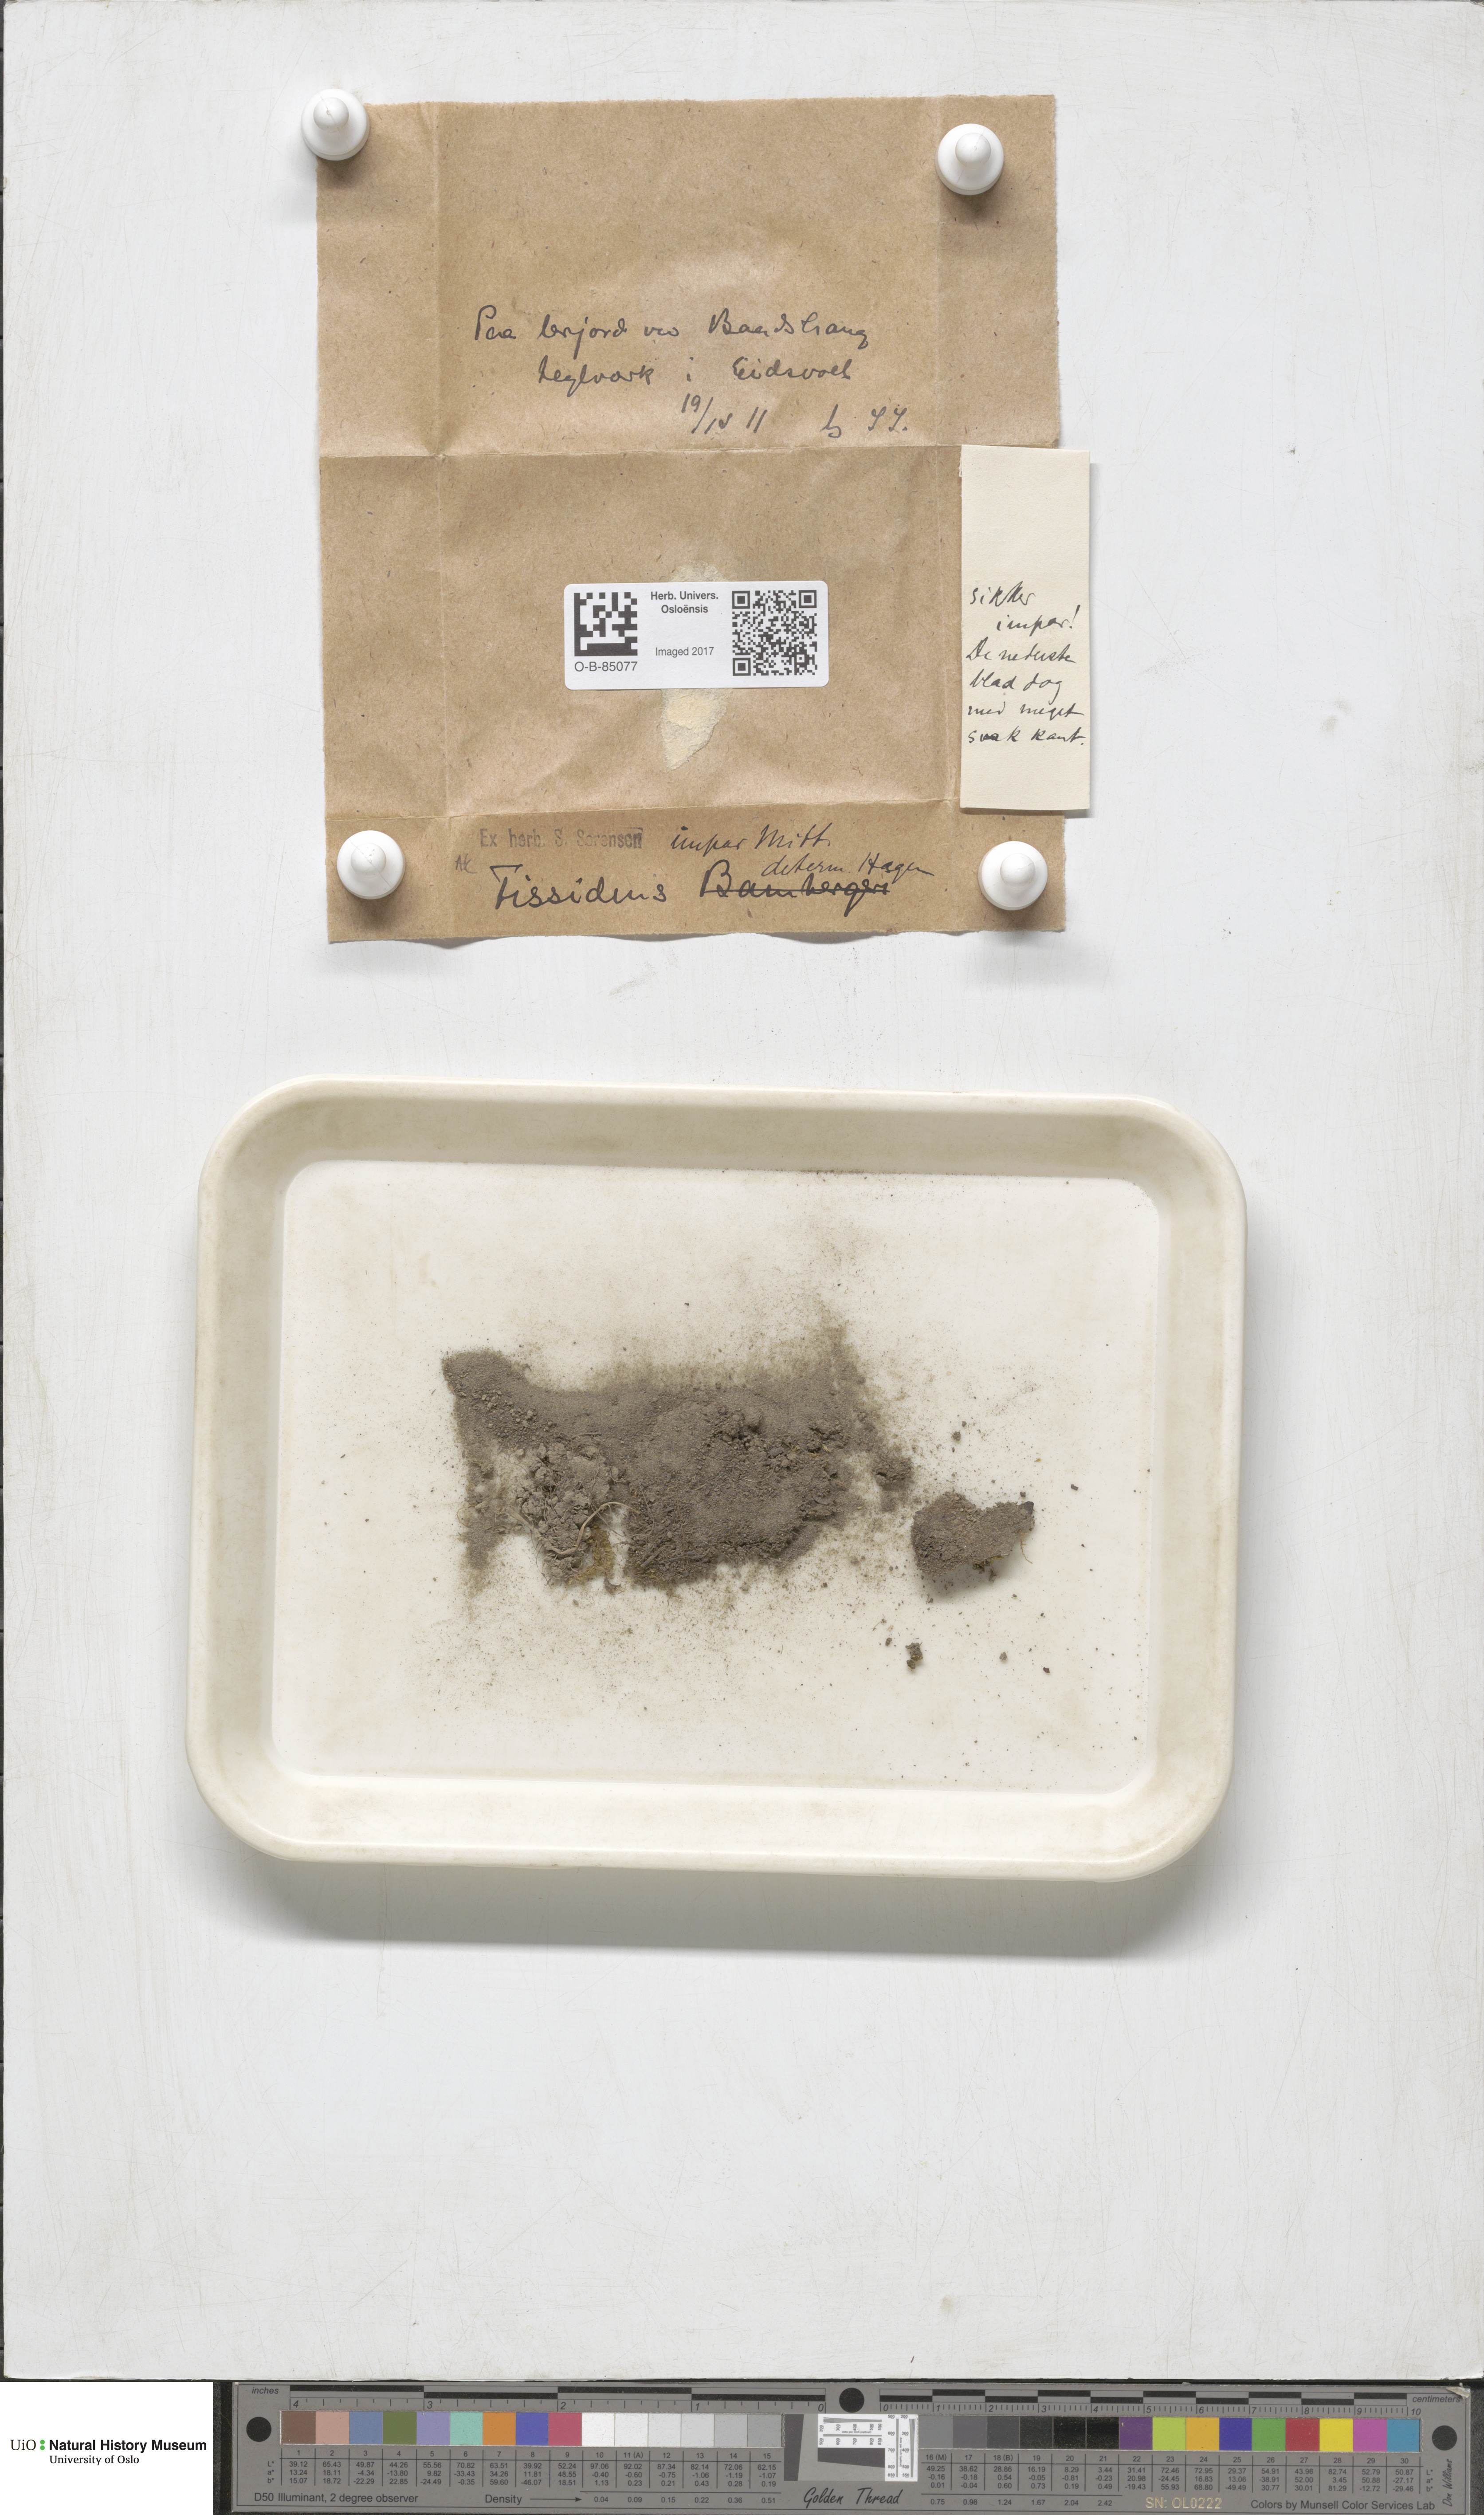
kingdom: Plantae
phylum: Bryophyta
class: Bryopsida
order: Dicranales
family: Fissidentaceae
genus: Fissidens
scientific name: Fissidens viridulus
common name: Green pocket-moss
